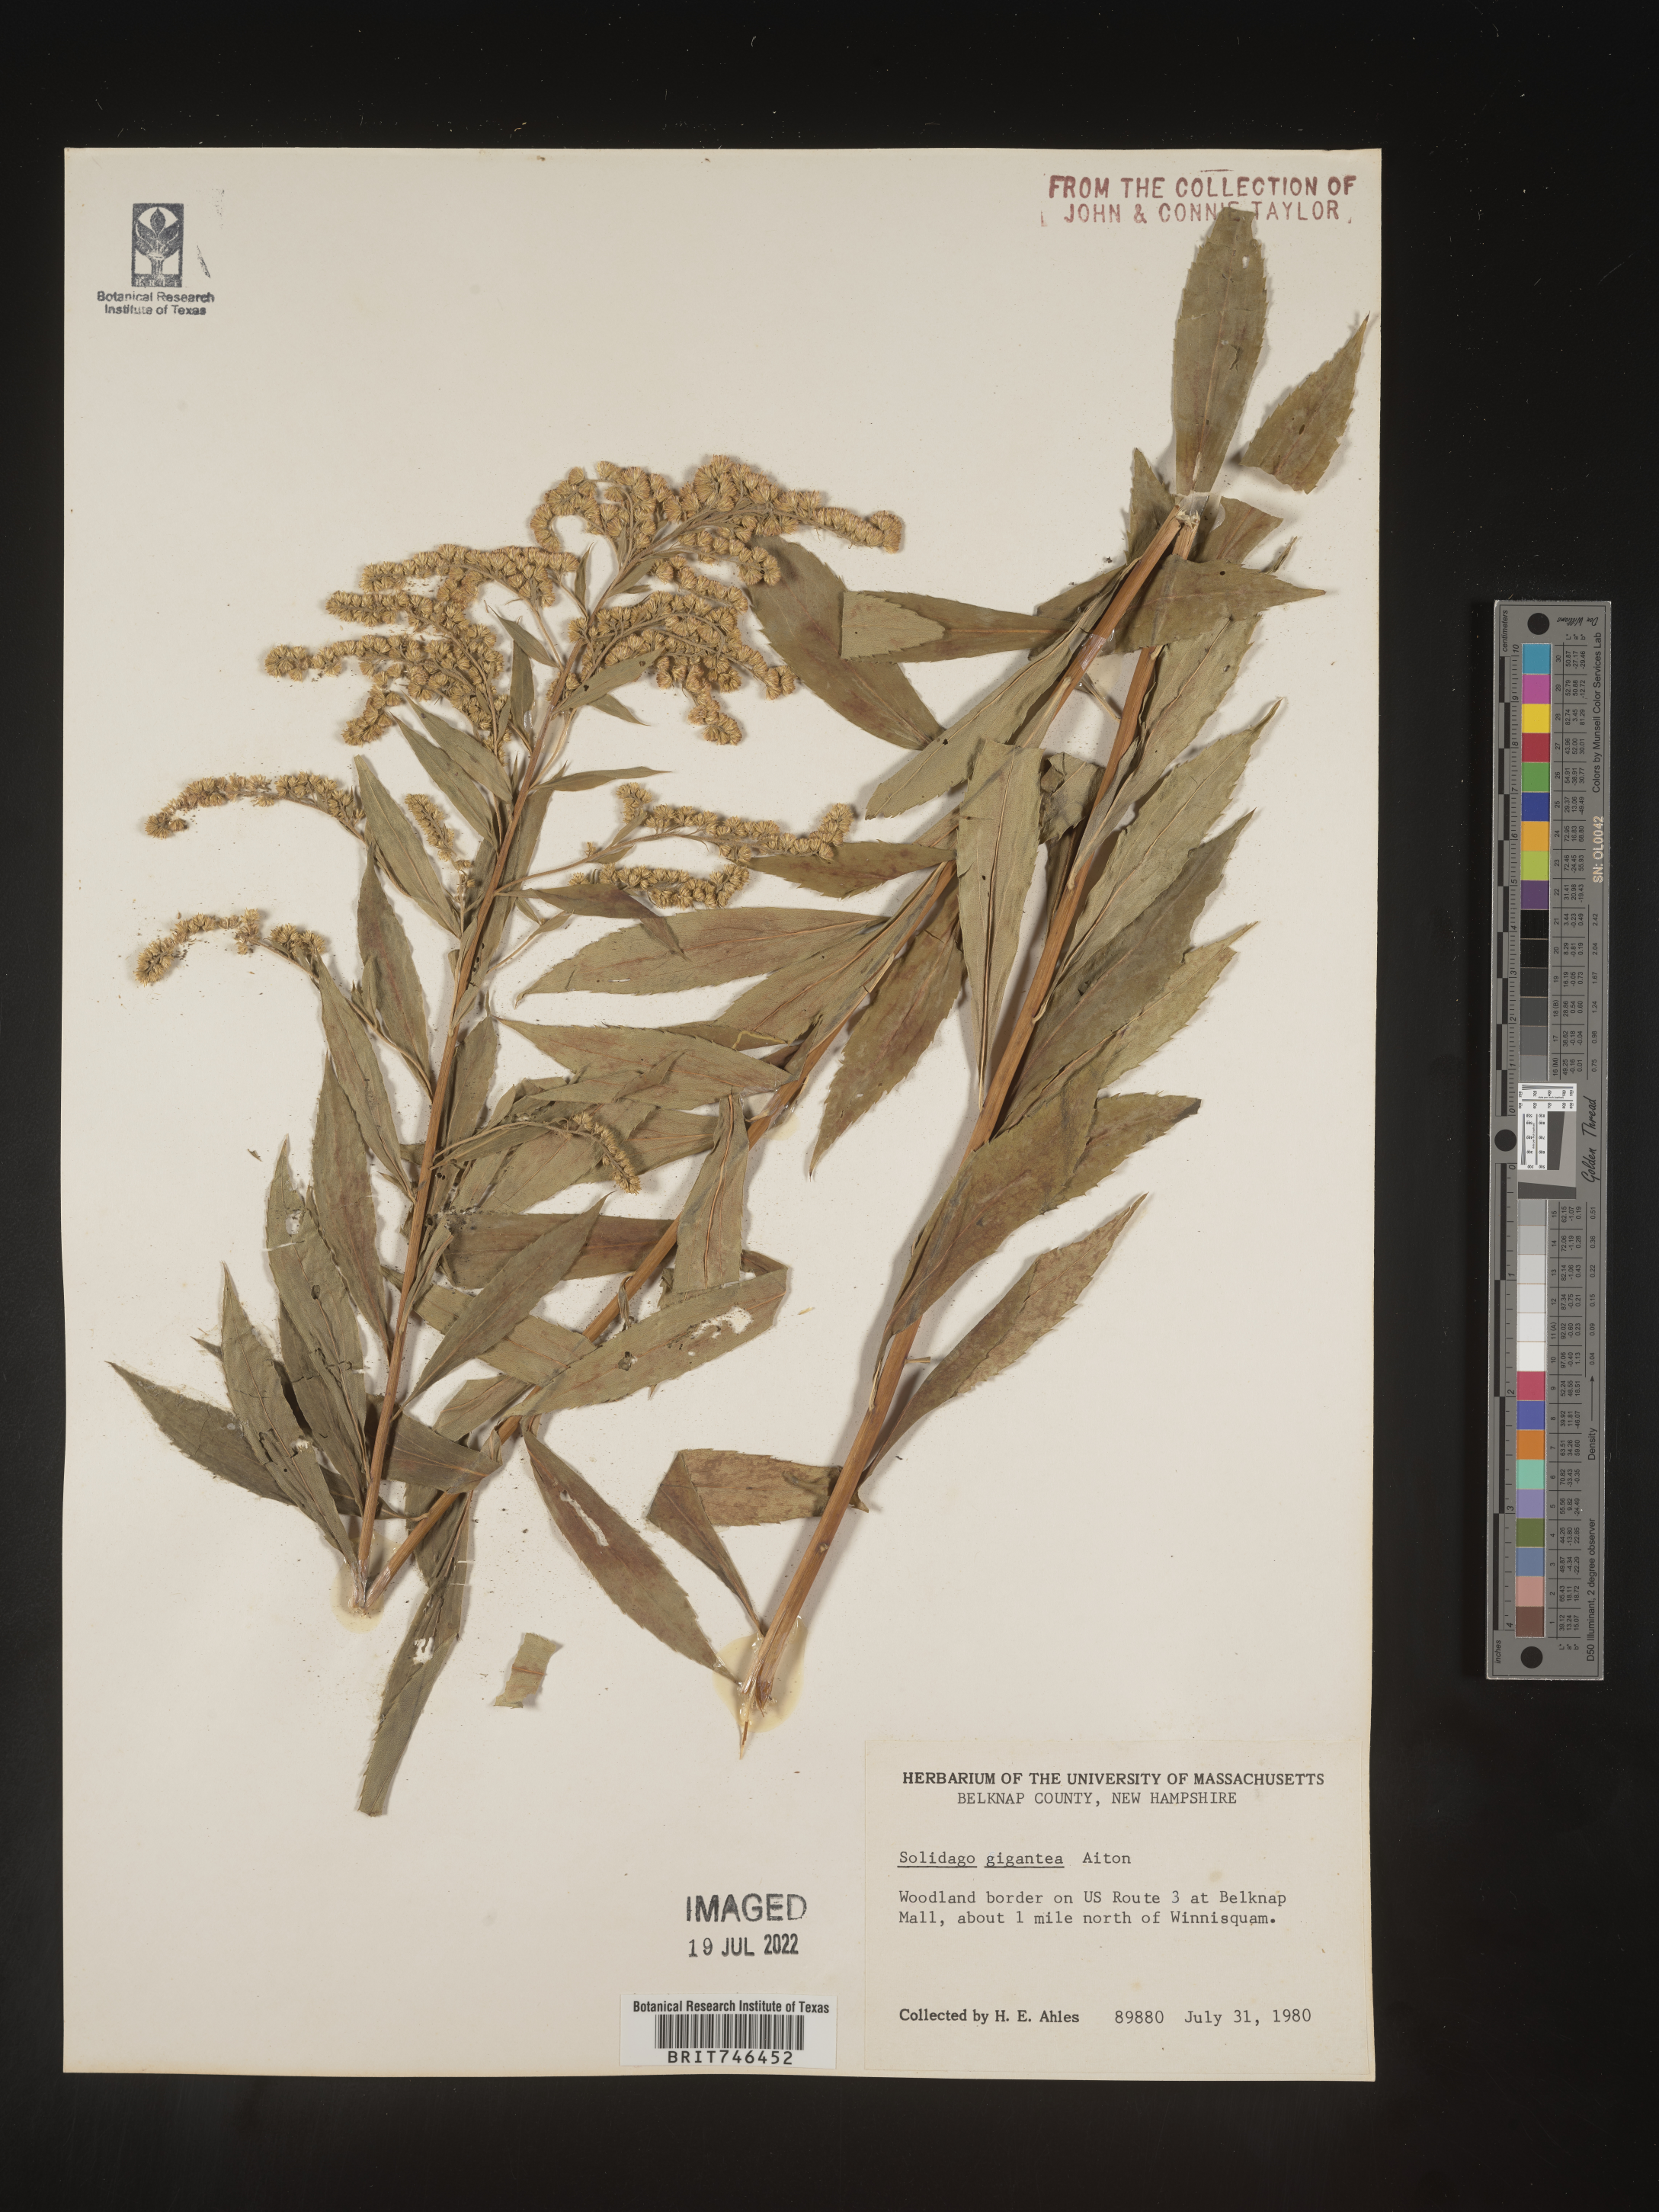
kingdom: Plantae
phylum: Tracheophyta
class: Magnoliopsida
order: Asterales
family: Asteraceae
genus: Solidago
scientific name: Solidago gigantea
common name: Giant goldenrod
